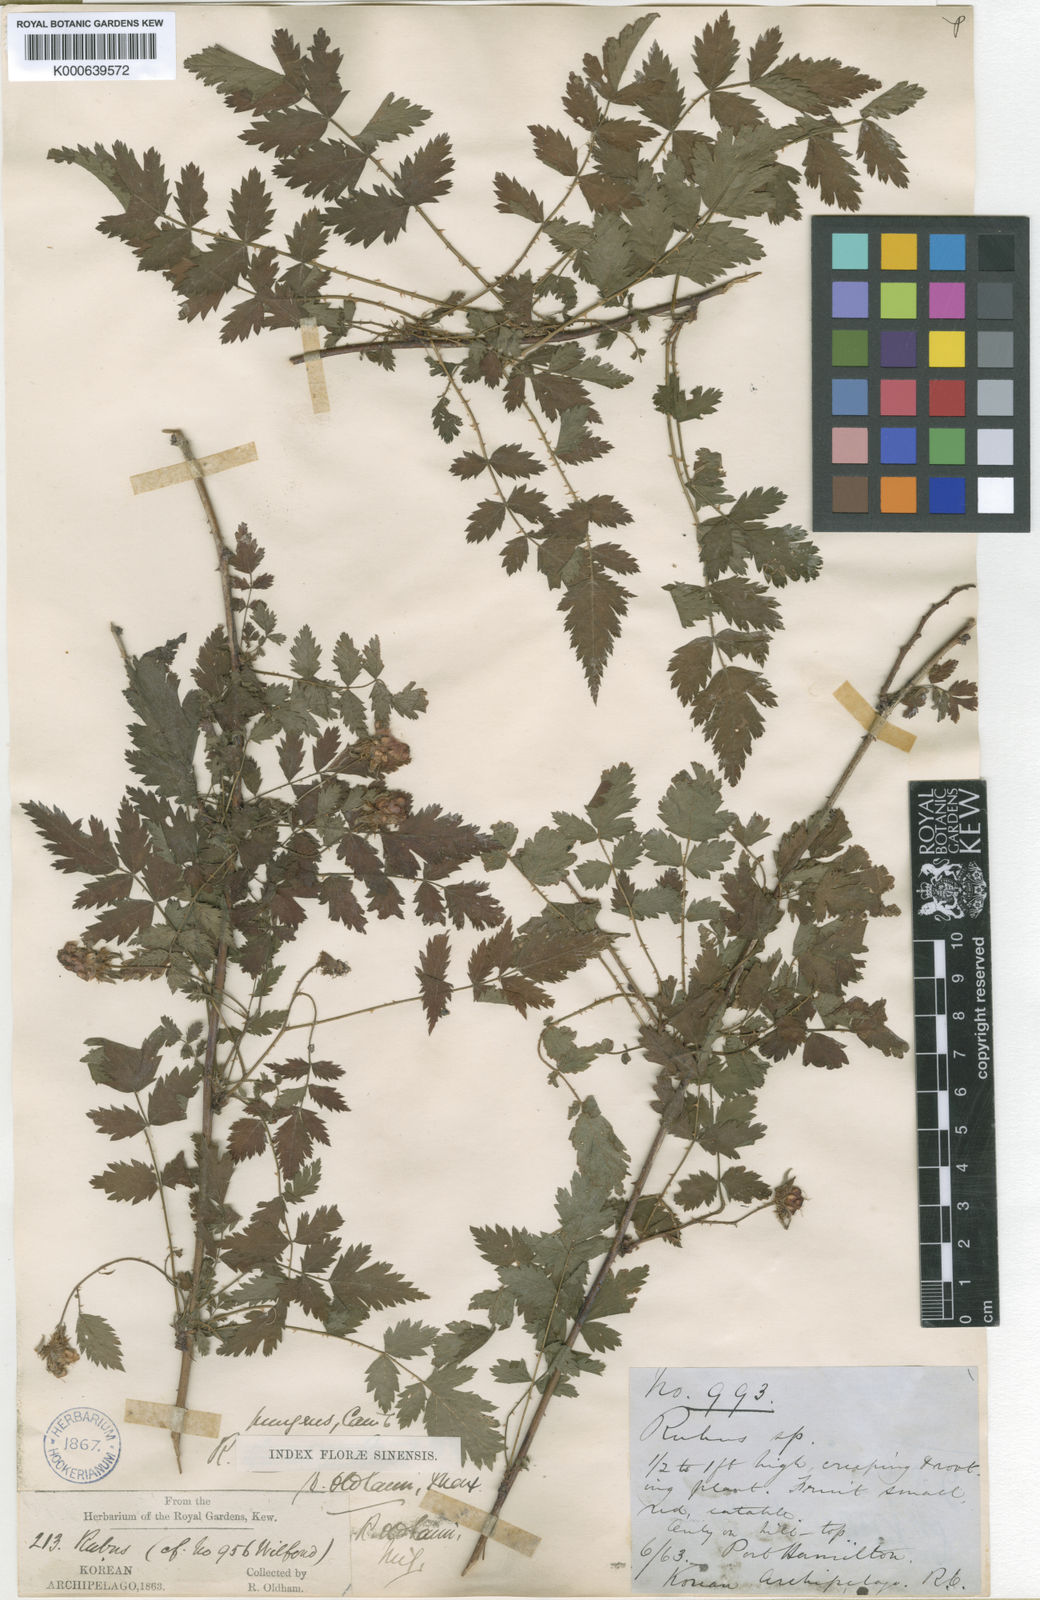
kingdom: Plantae
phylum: Tracheophyta
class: Magnoliopsida
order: Rosales
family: Rosaceae
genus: Rubus
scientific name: Rubus pungens
